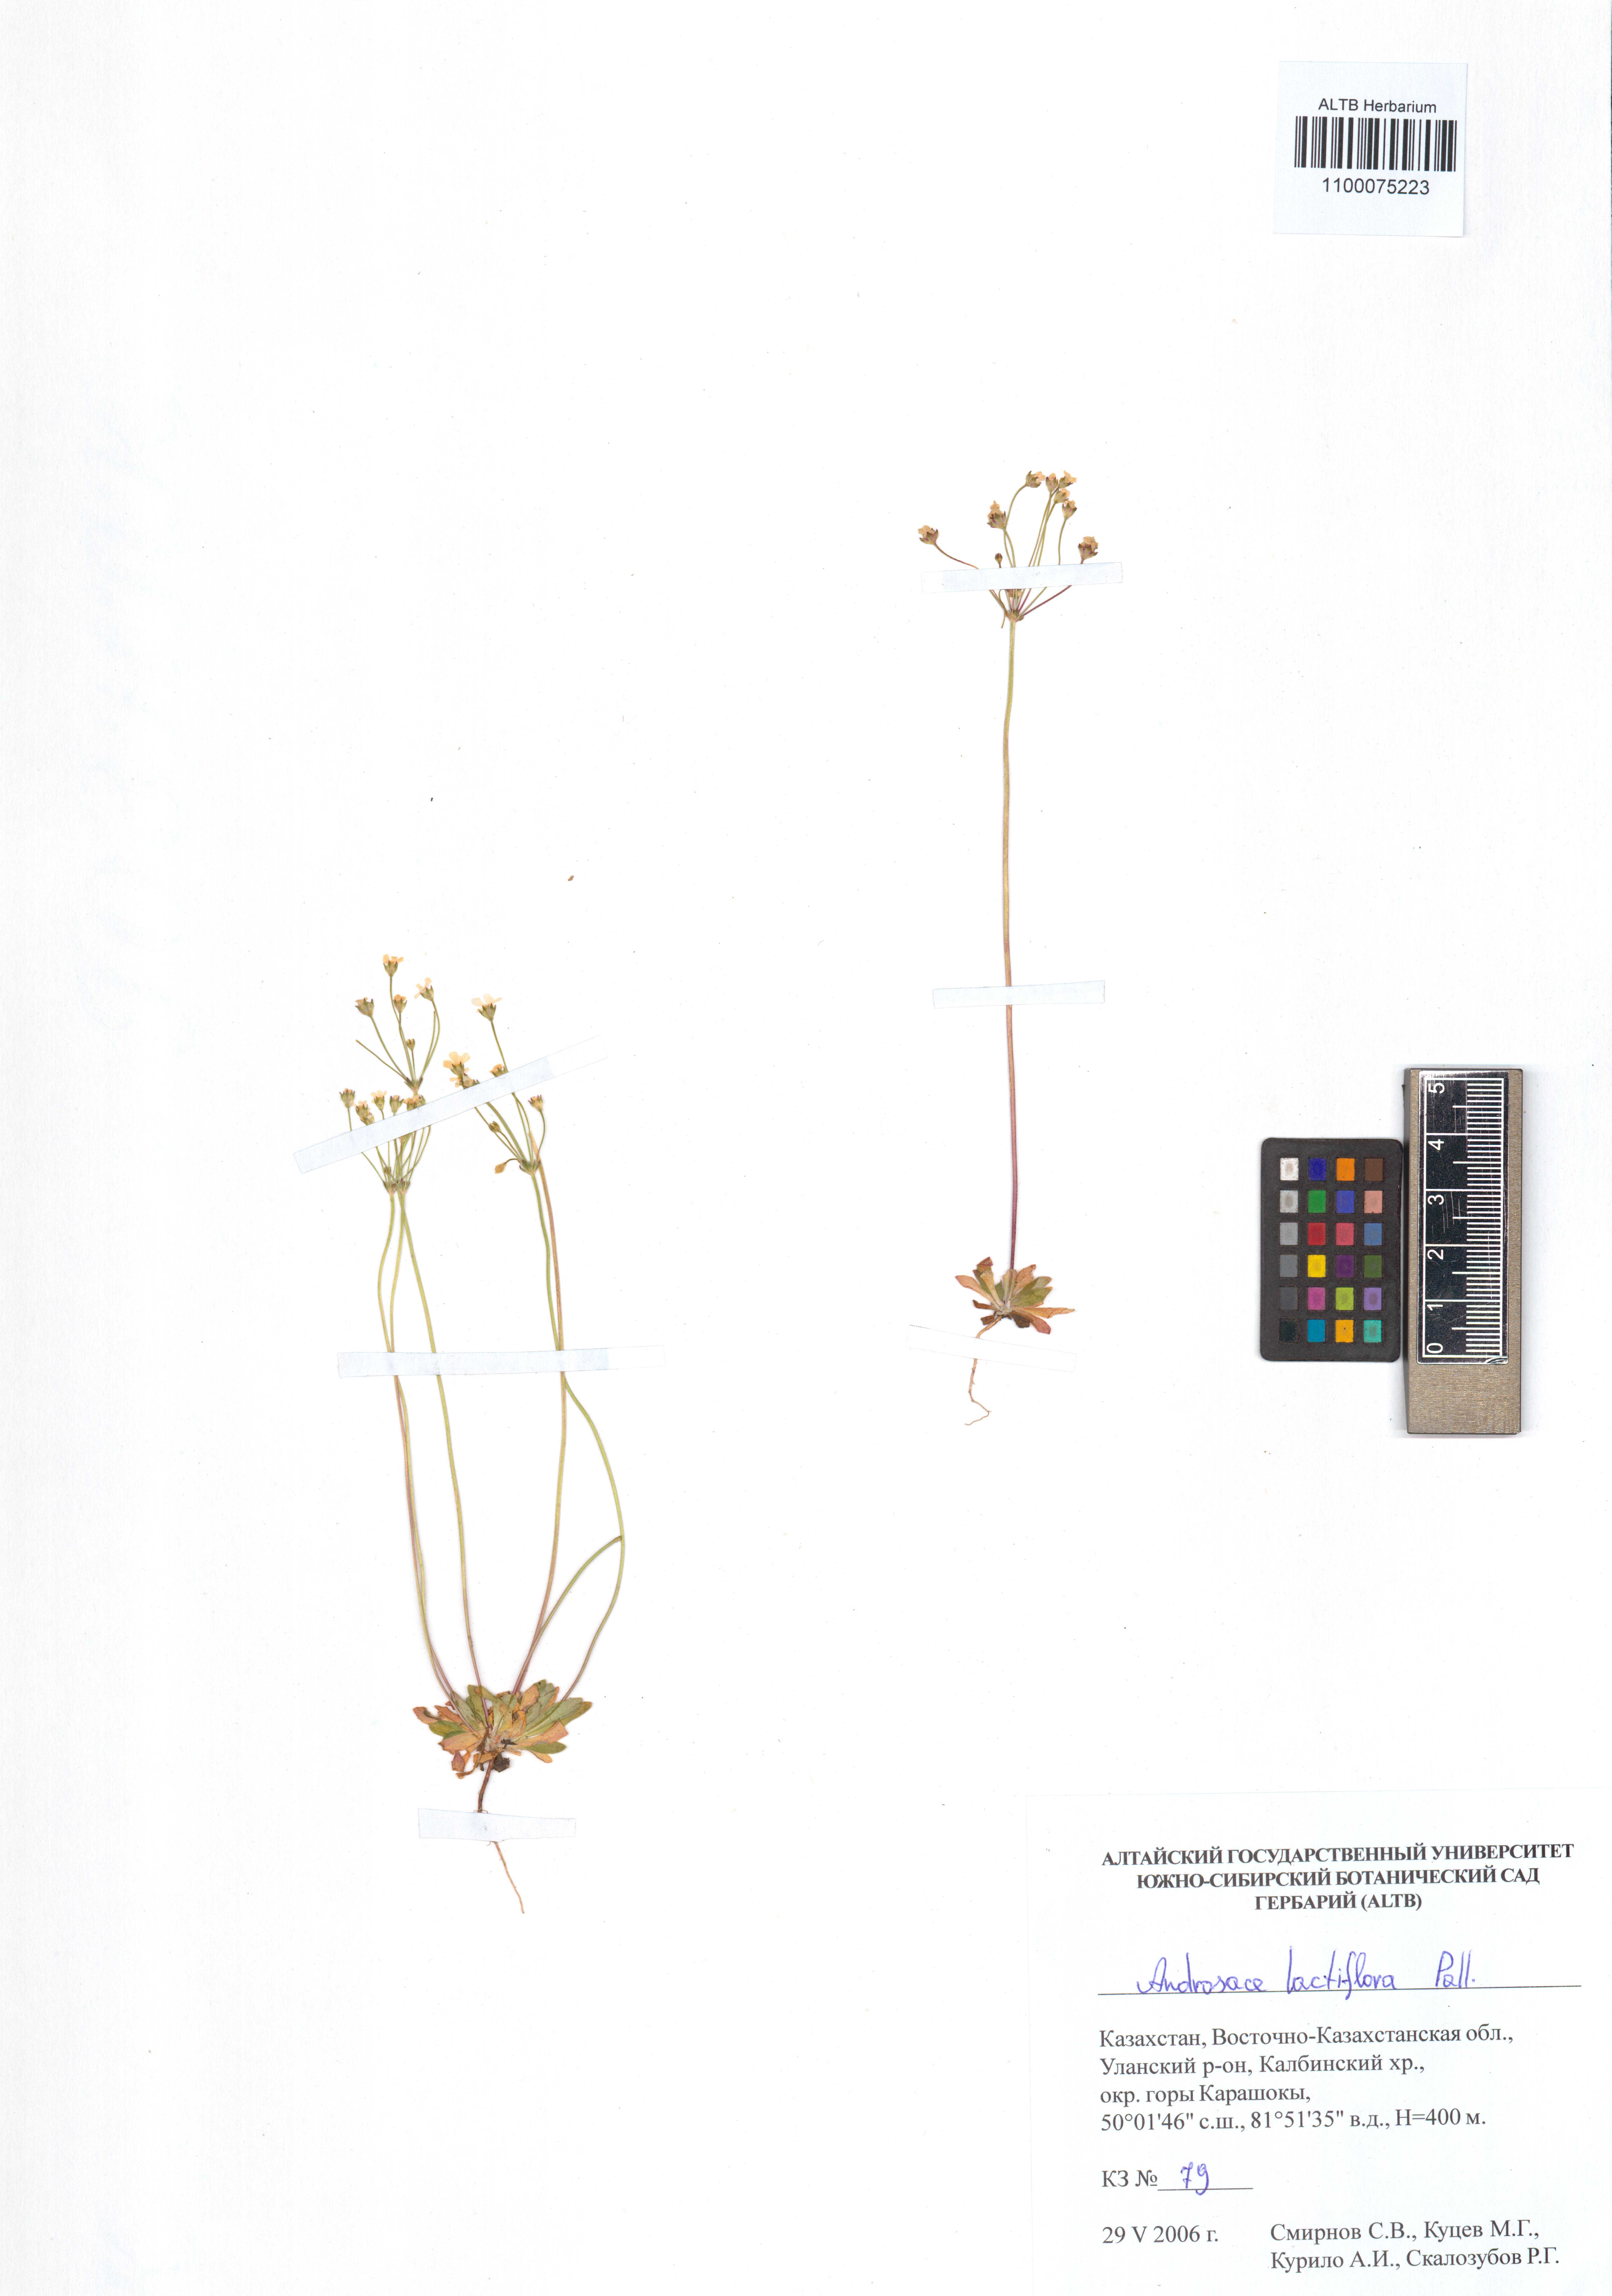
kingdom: Plantae
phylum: Tracheophyta
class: Magnoliopsida
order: Ericales
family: Primulaceae
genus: Androsace
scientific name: Androsace lactiflora
